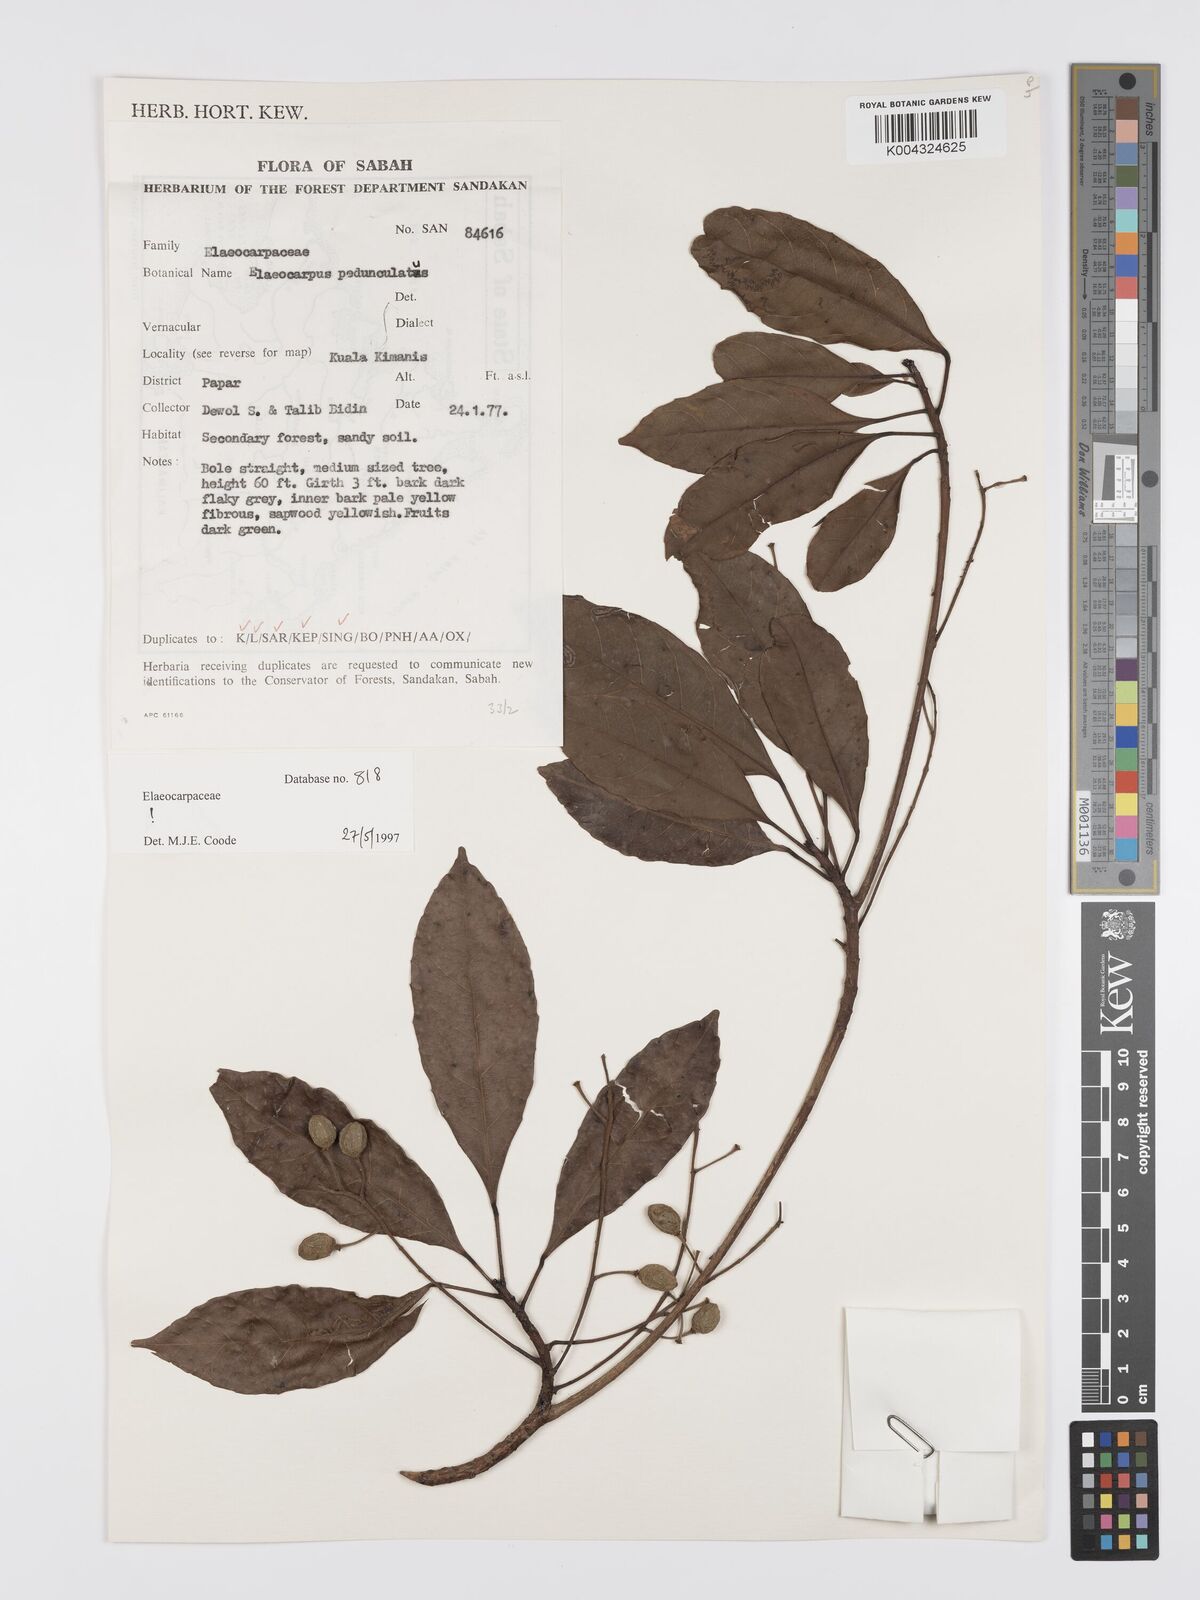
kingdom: Plantae
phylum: Tracheophyta
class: Magnoliopsida
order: Oxalidales
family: Elaeocarpaceae
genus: Elaeocarpus
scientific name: Elaeocarpus pedunculatus
